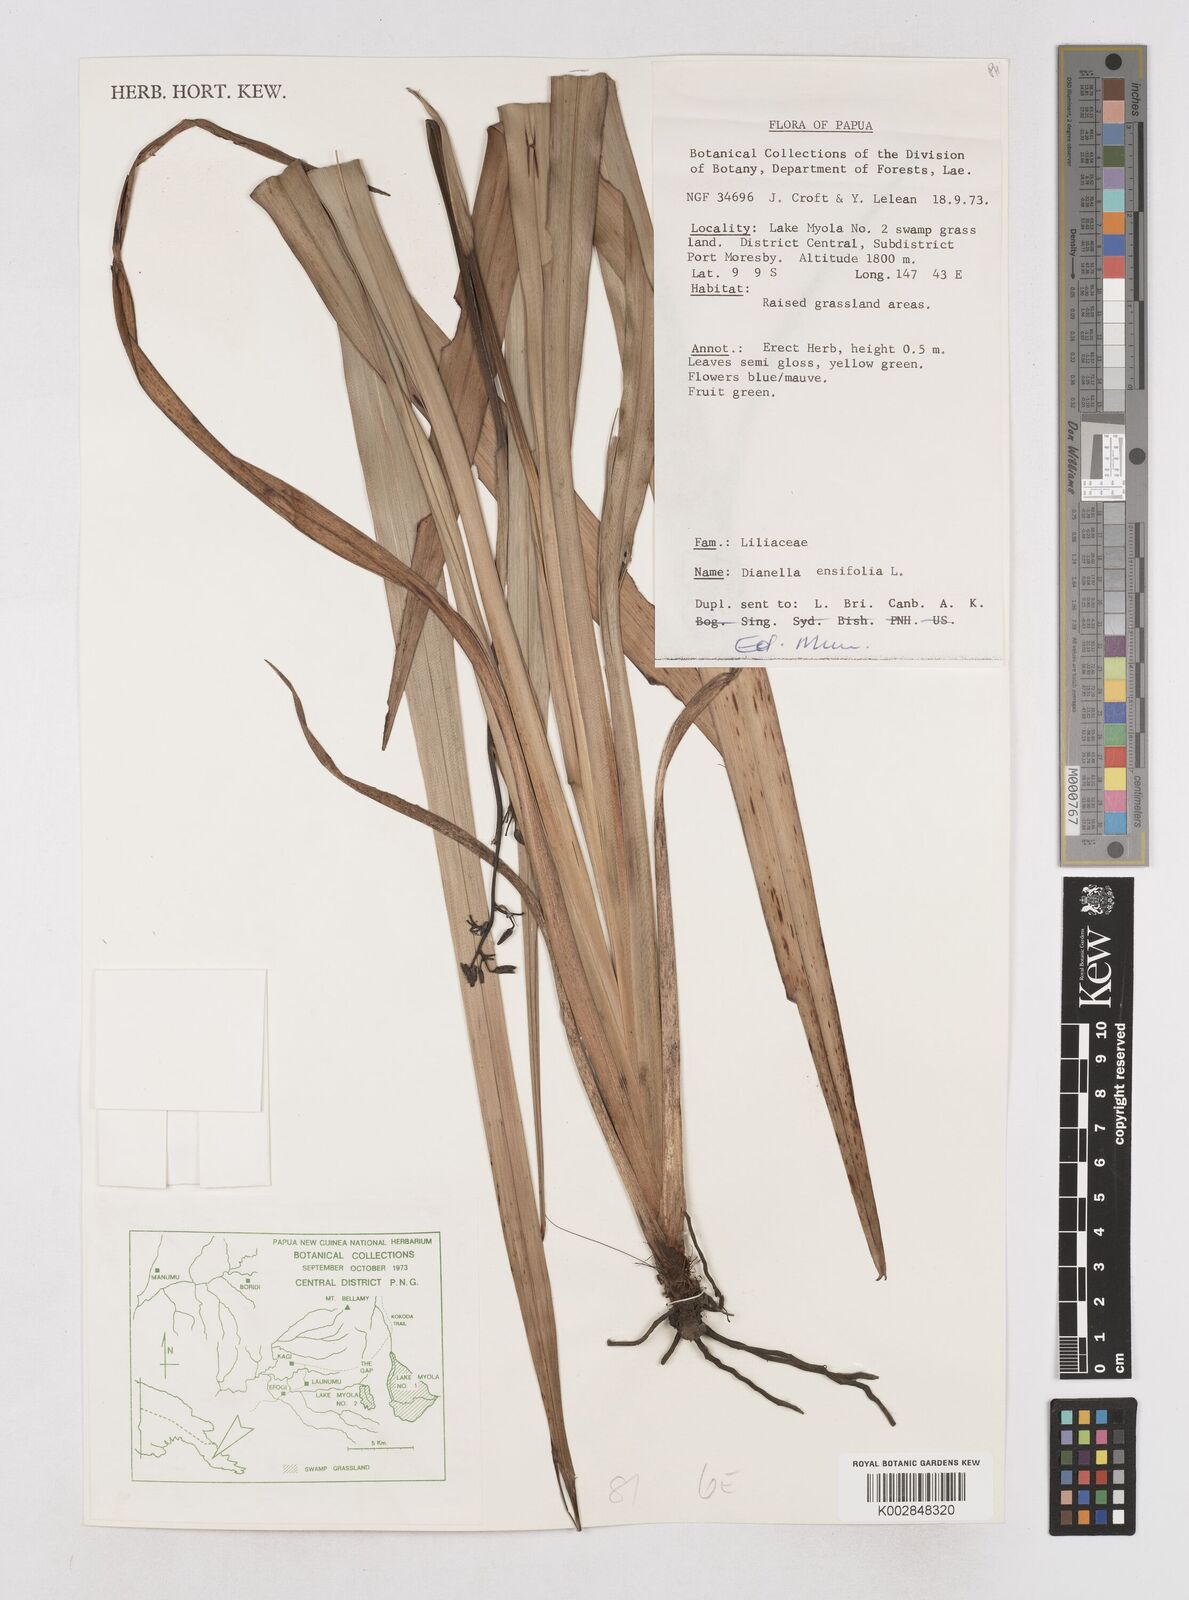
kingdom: Plantae
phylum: Tracheophyta
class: Liliopsida
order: Asparagales
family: Asphodelaceae
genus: Dianella
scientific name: Dianella ensifolia
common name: New zealand lilyplant
